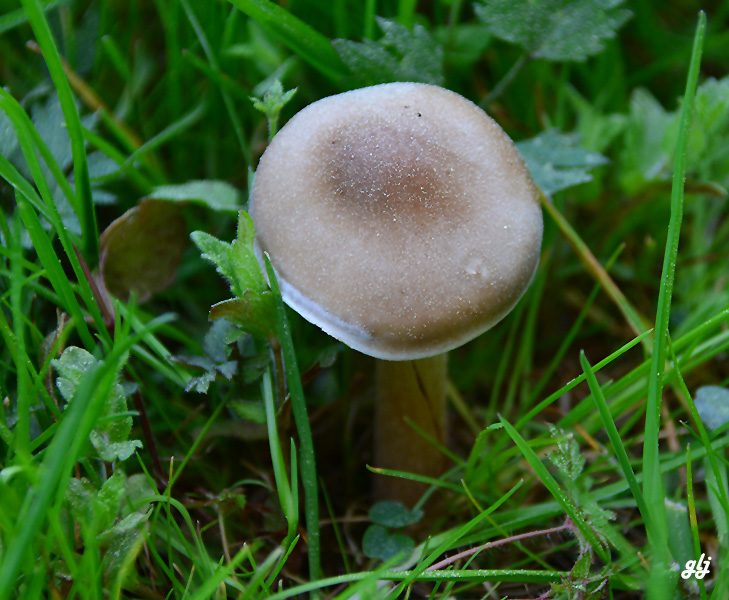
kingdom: Fungi
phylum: Basidiomycota
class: Agaricomycetes
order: Agaricales
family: Tricholomataceae
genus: Melanoleuca
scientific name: Melanoleuca cognata
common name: gyldengrå munkehat
